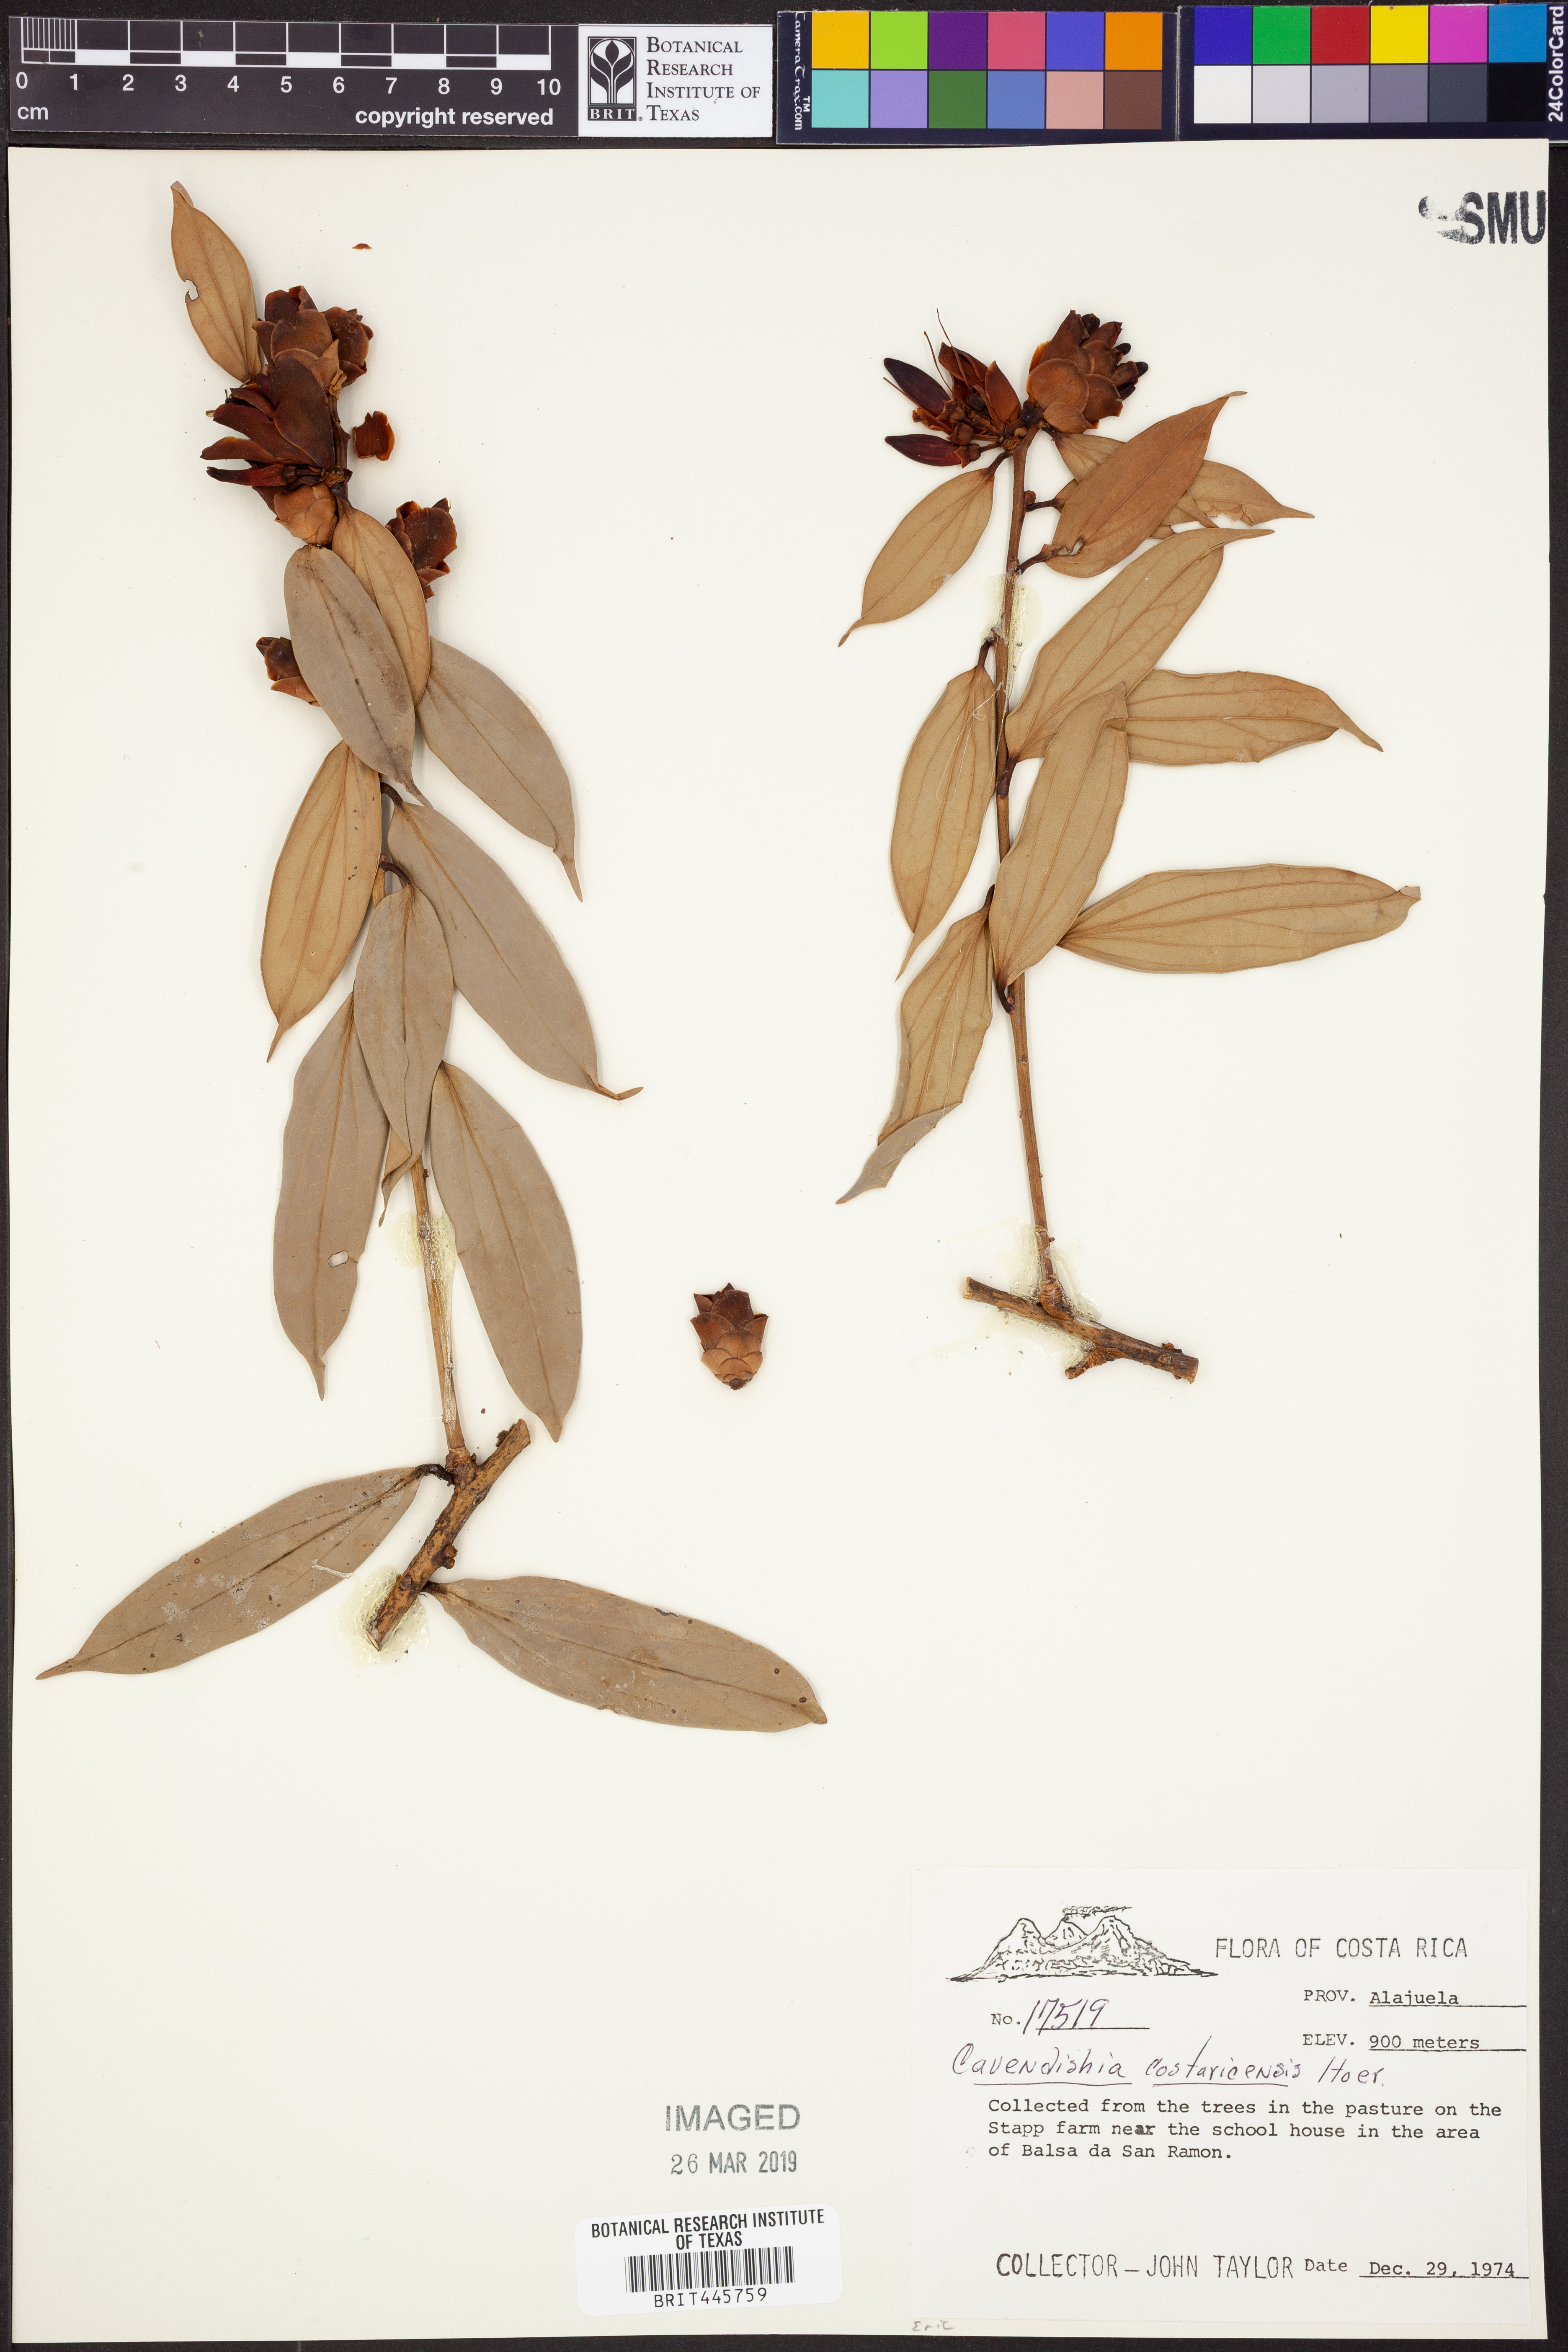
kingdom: Plantae
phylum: Tracheophyta
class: Magnoliopsida
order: Ericales
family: Ericaceae
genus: Cavendishia
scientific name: Cavendishia bracteata
